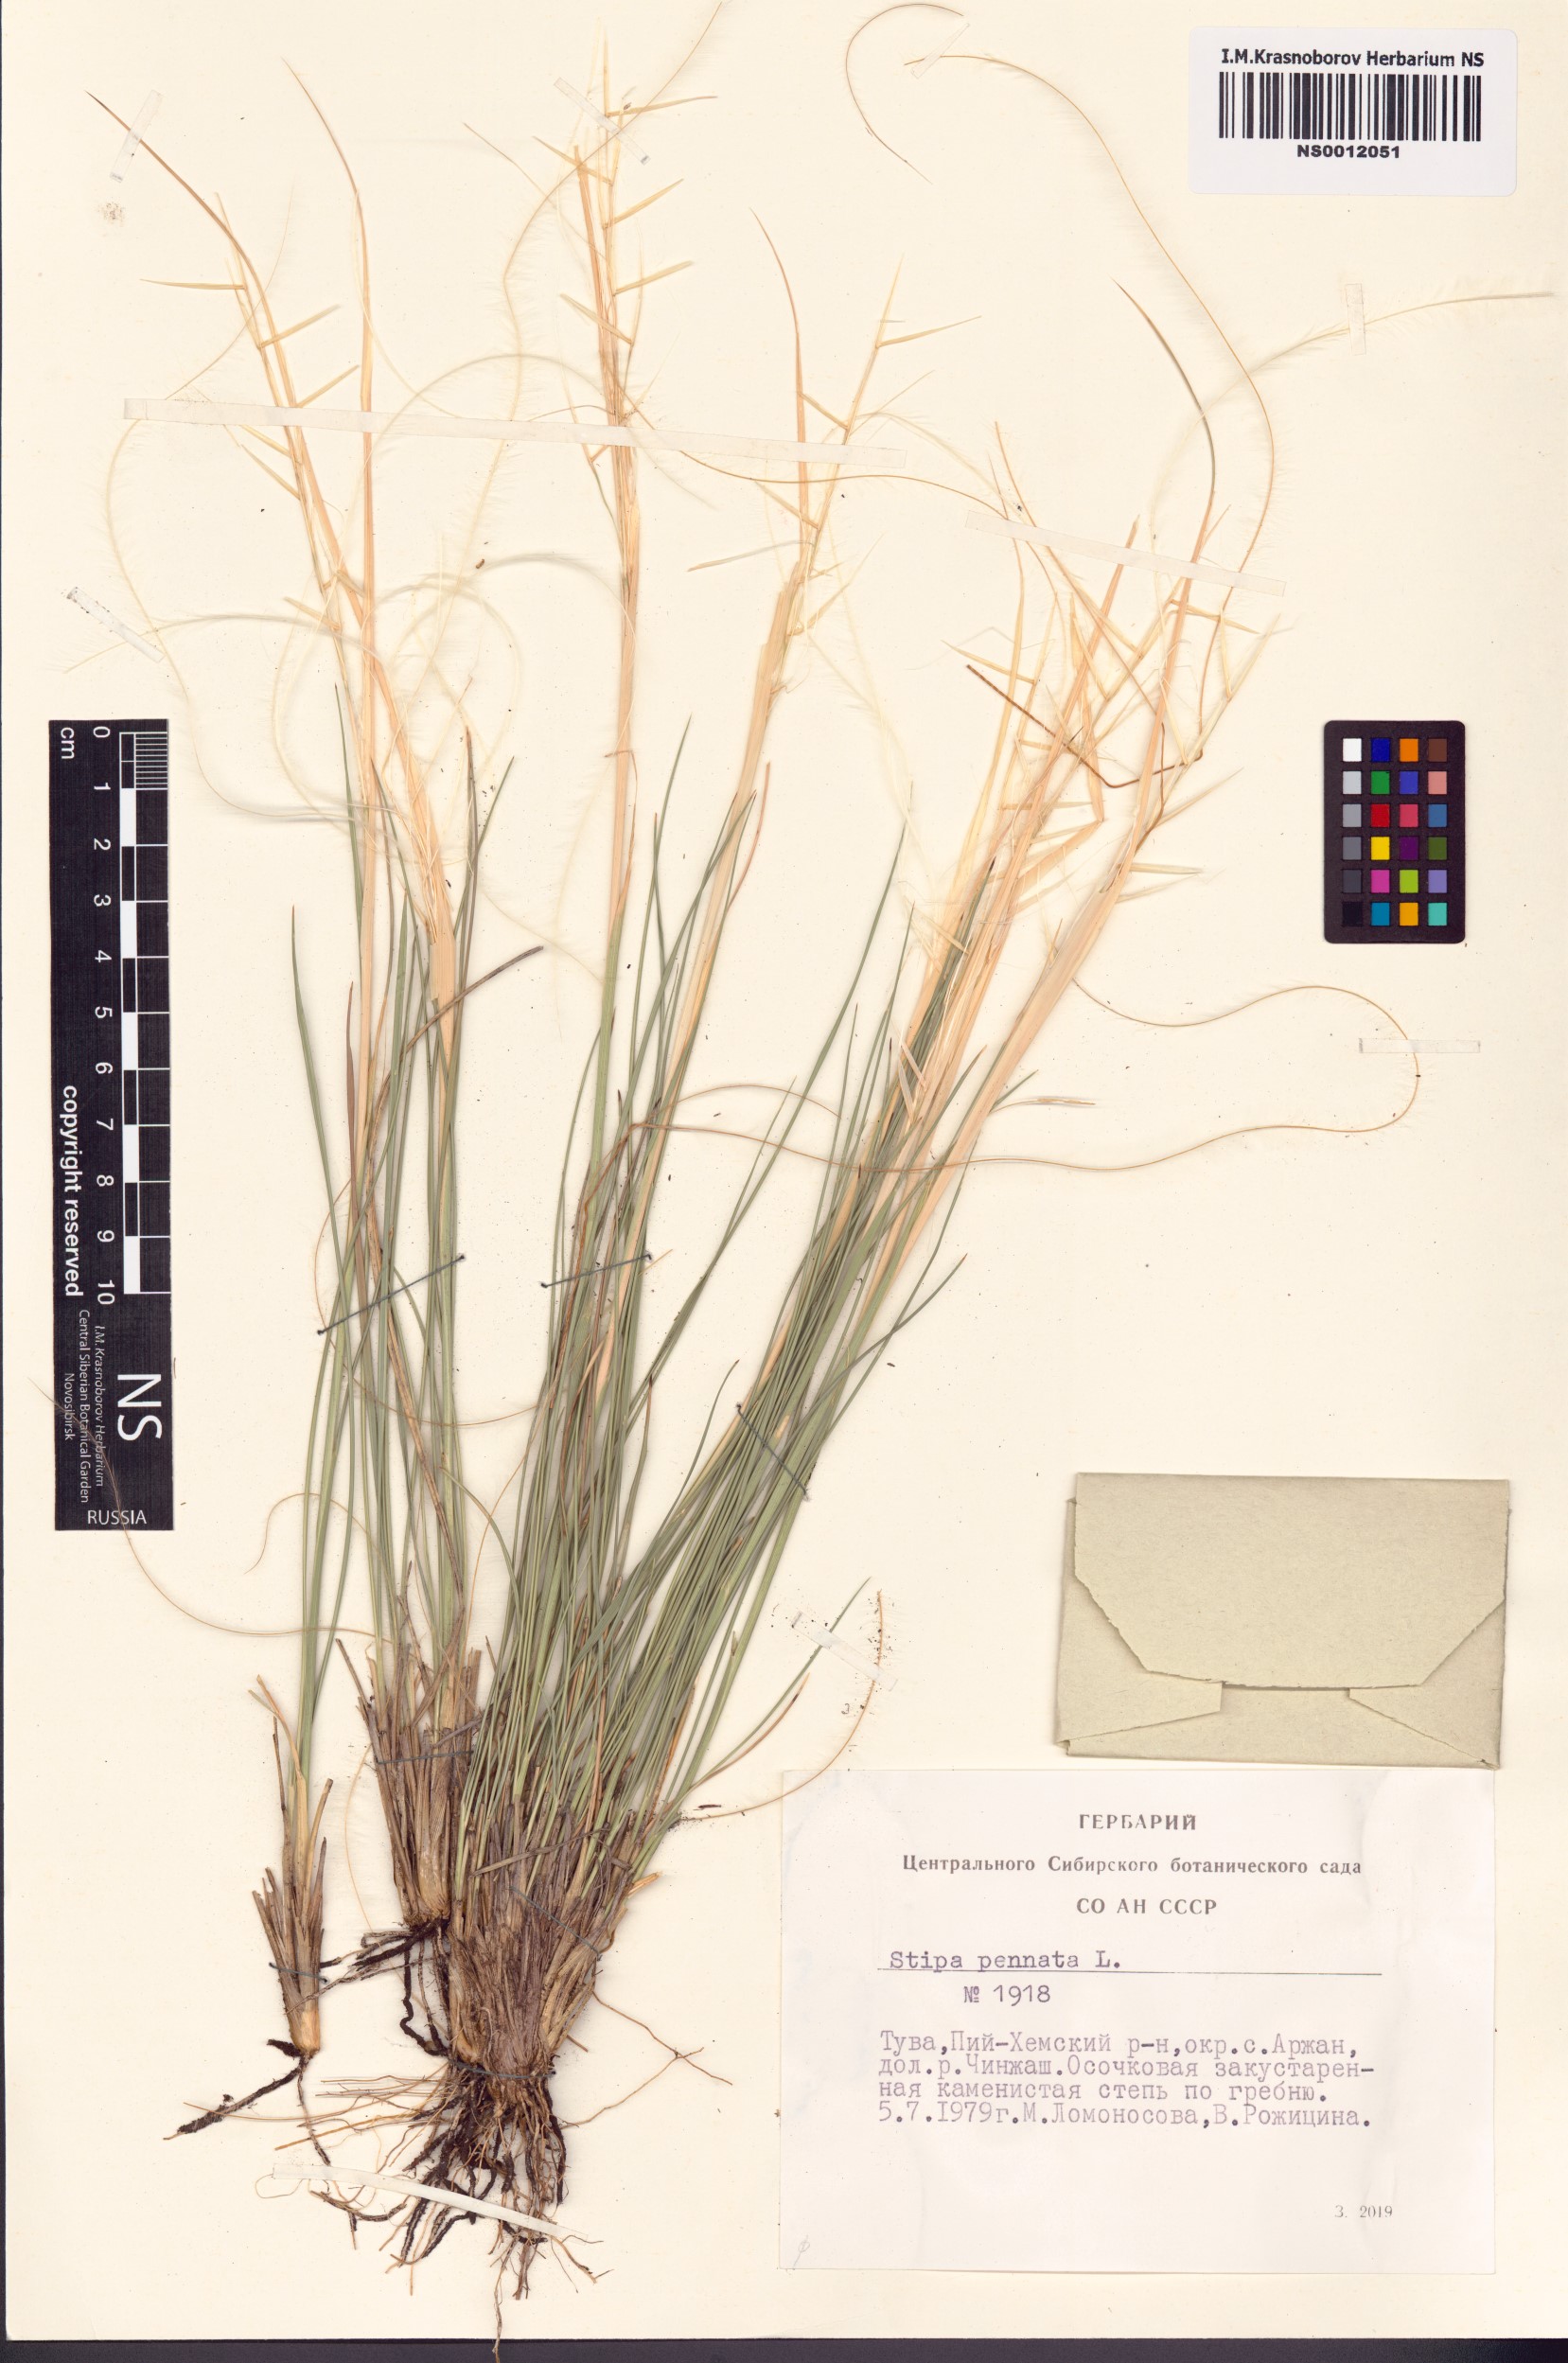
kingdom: Plantae
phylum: Tracheophyta
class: Liliopsida
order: Poales
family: Poaceae
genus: Stipa
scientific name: Stipa pennata
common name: European feather grass
